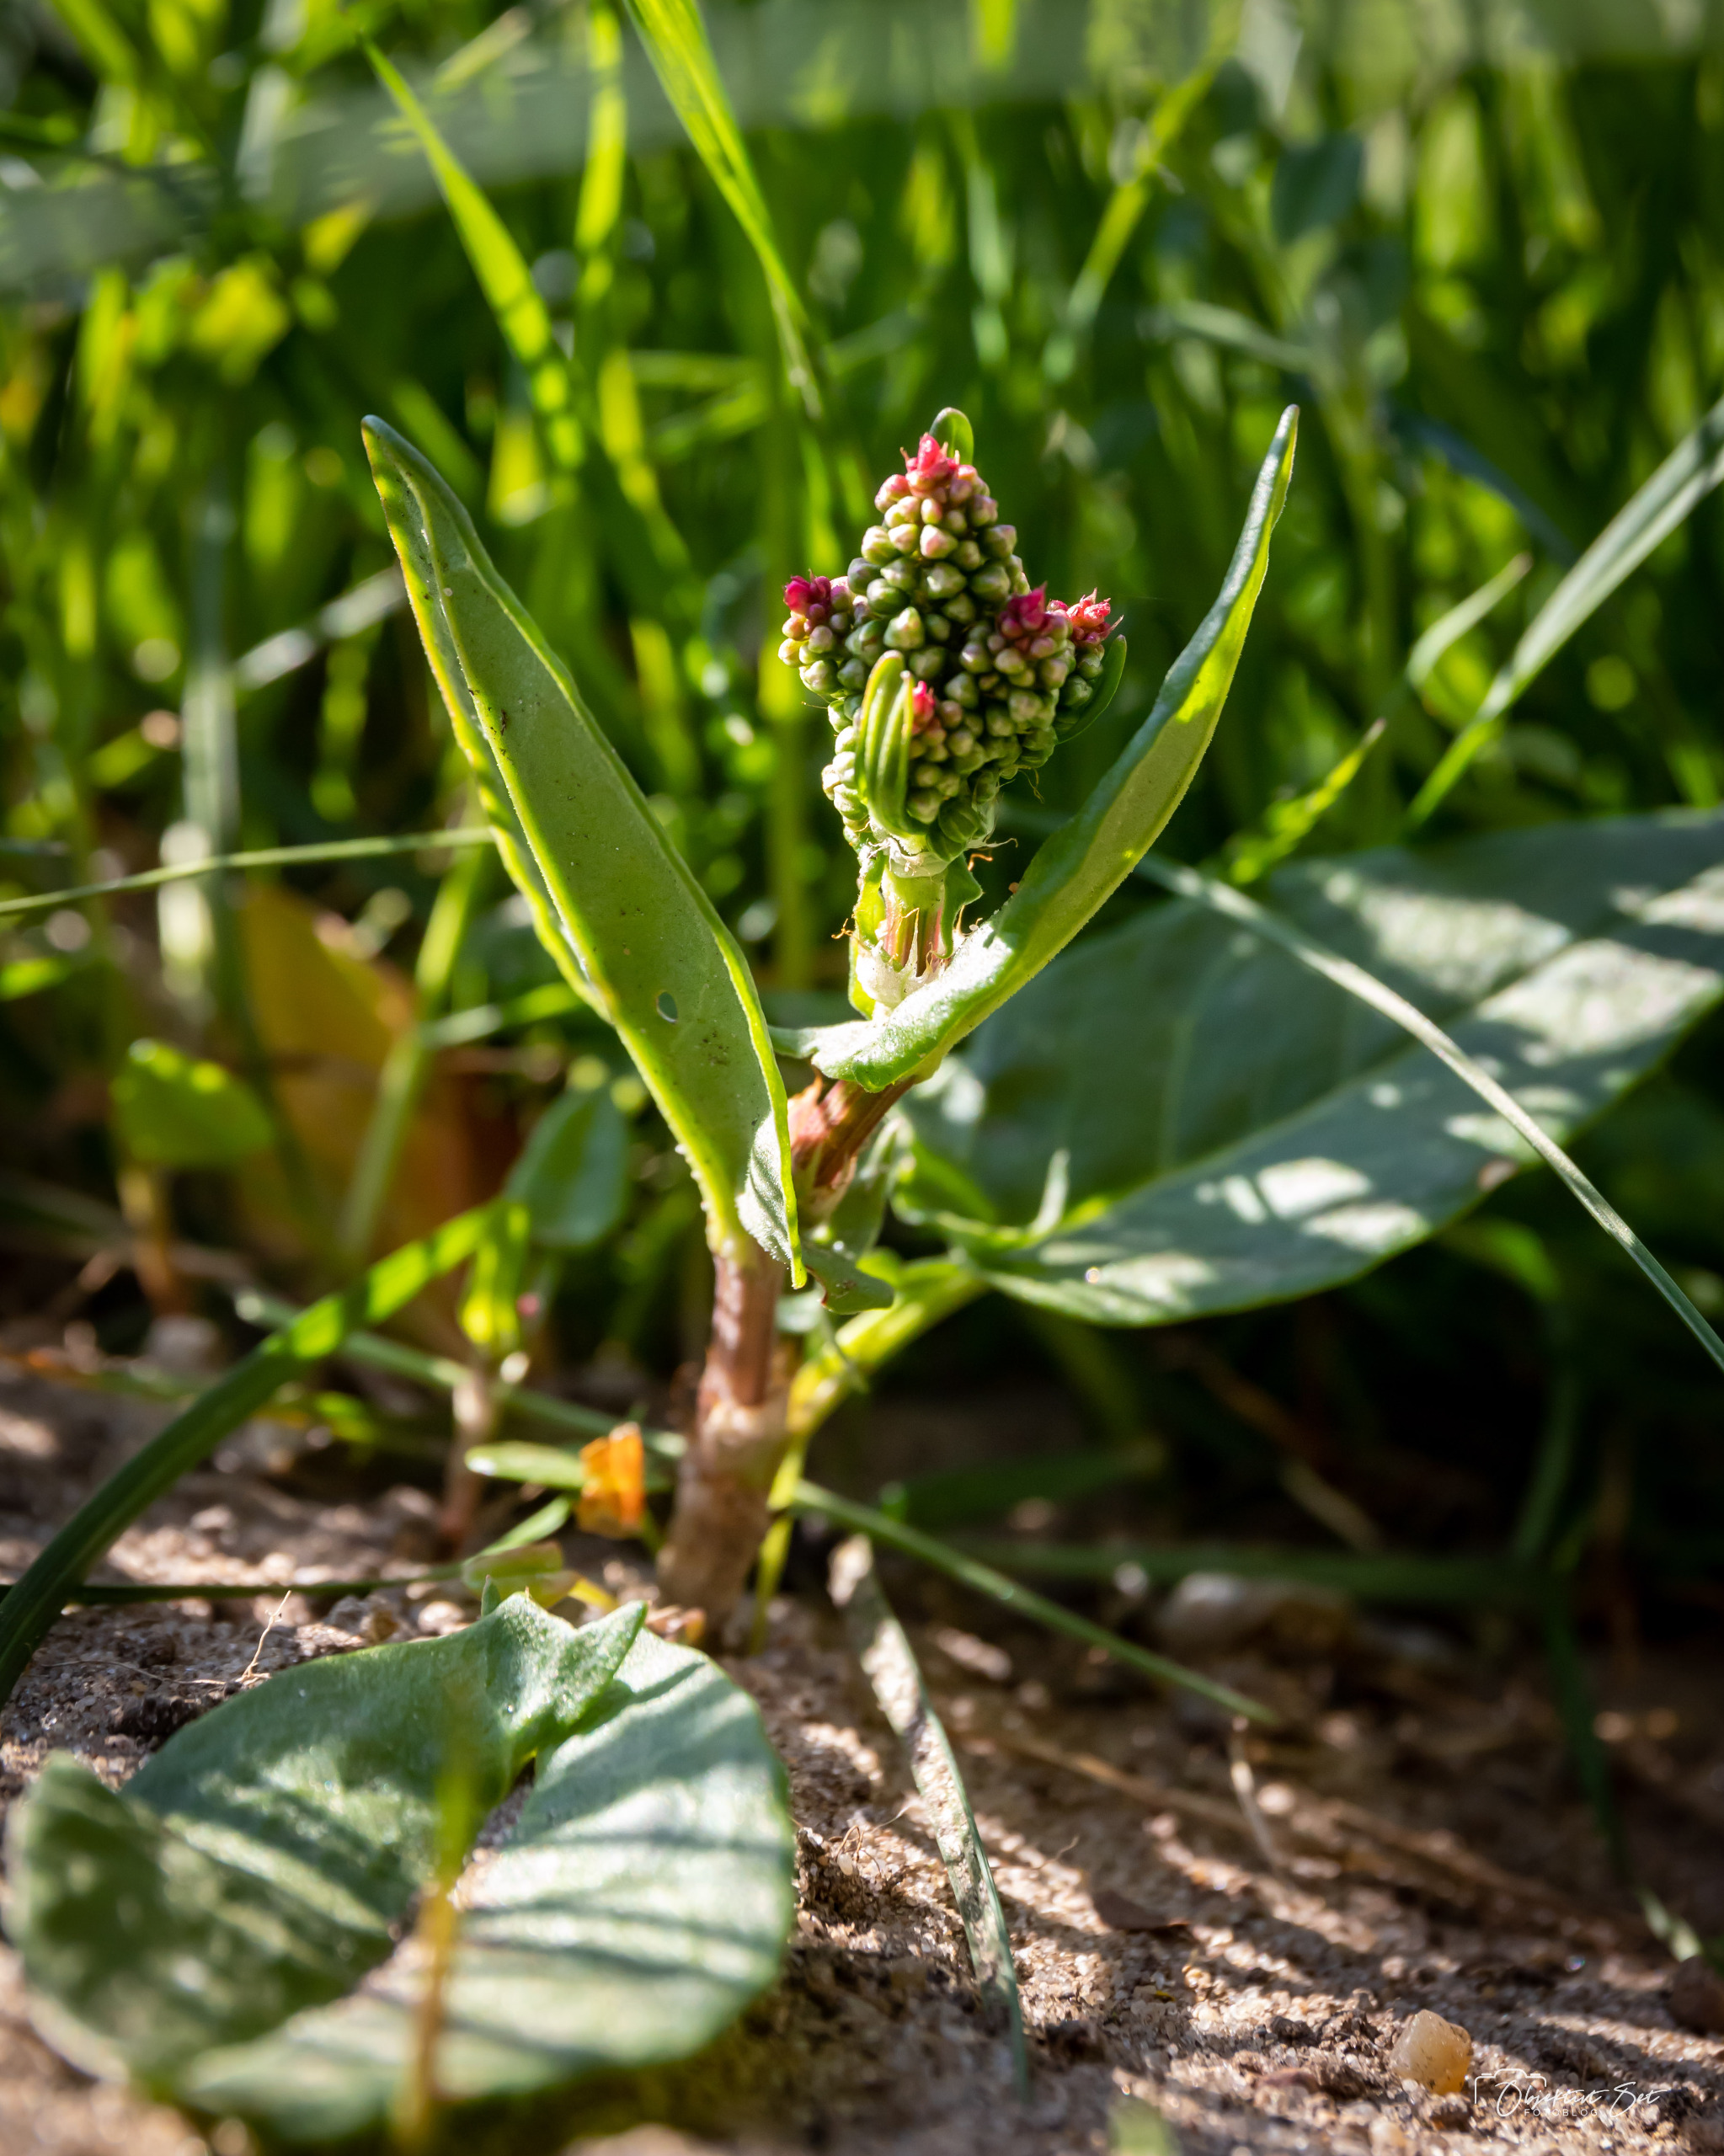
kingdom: Plantae
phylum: Tracheophyta
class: Magnoliopsida
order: Caryophyllales
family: Polygonaceae
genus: Rumex
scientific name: Rumex acetosa
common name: Almindelig syre
